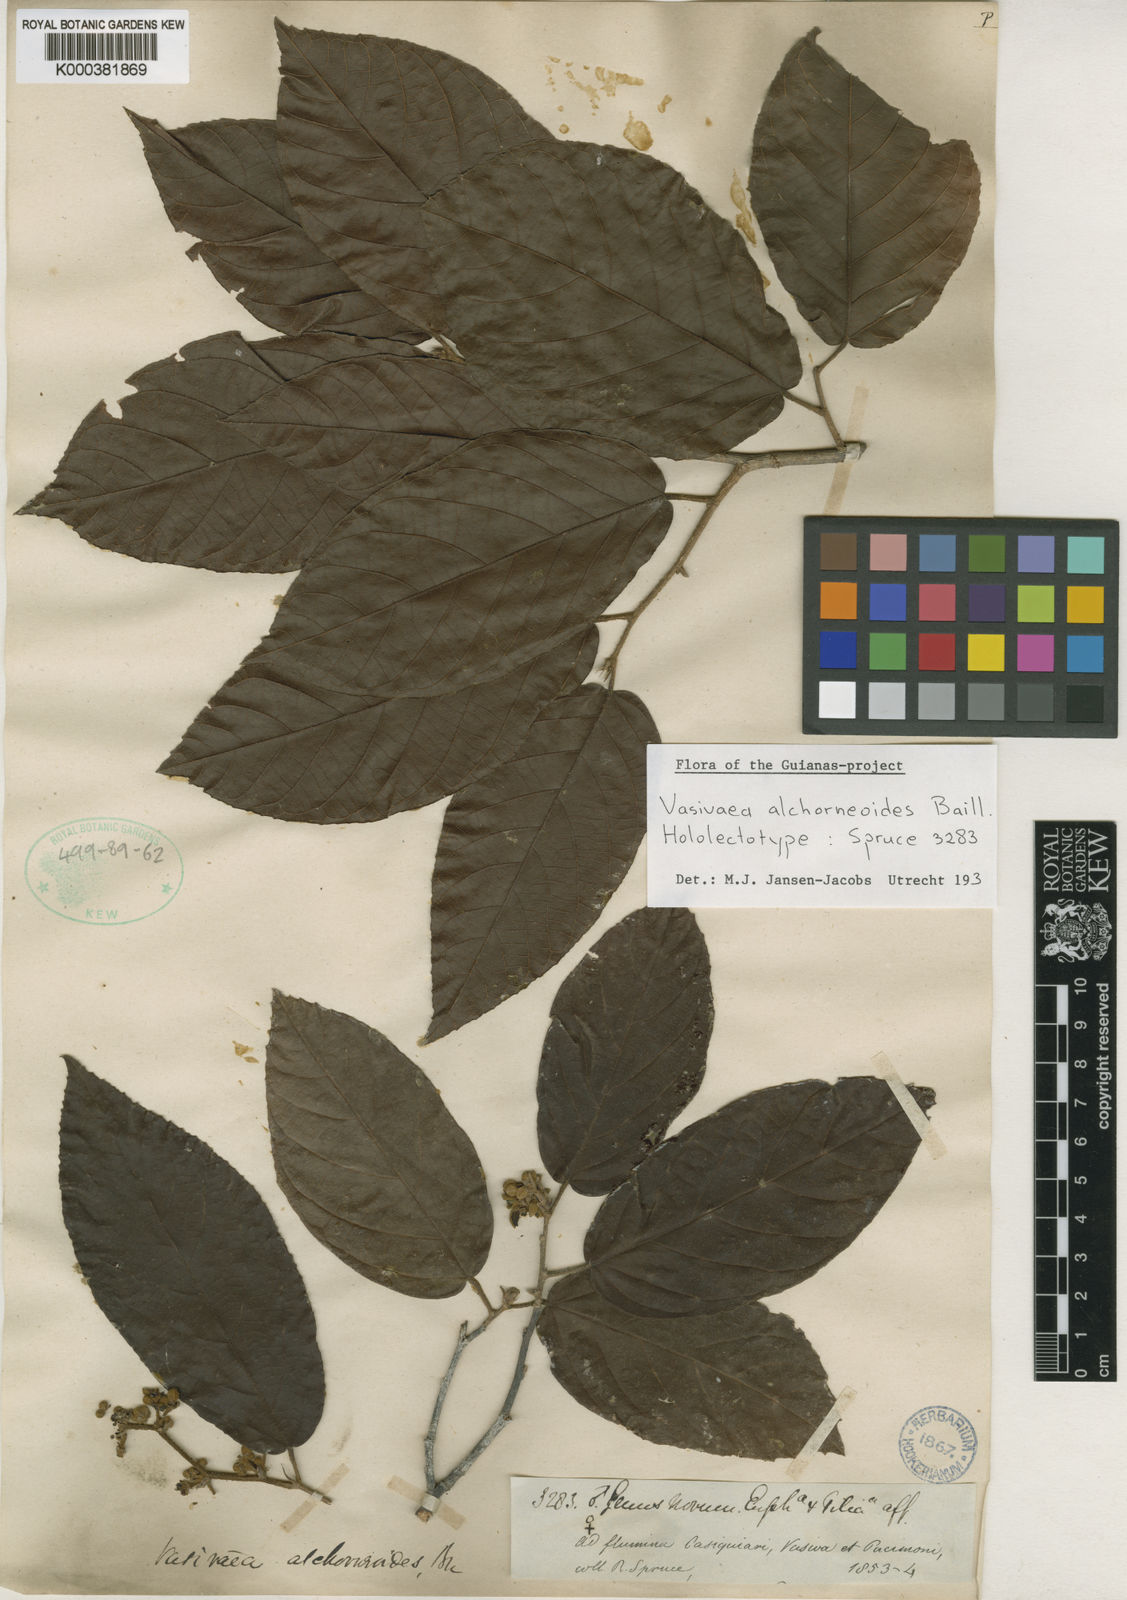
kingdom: Plantae
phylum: Tracheophyta
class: Magnoliopsida
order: Malvales
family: Malvaceae
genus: Vasivaea
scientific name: Vasivaea alchorneoides
